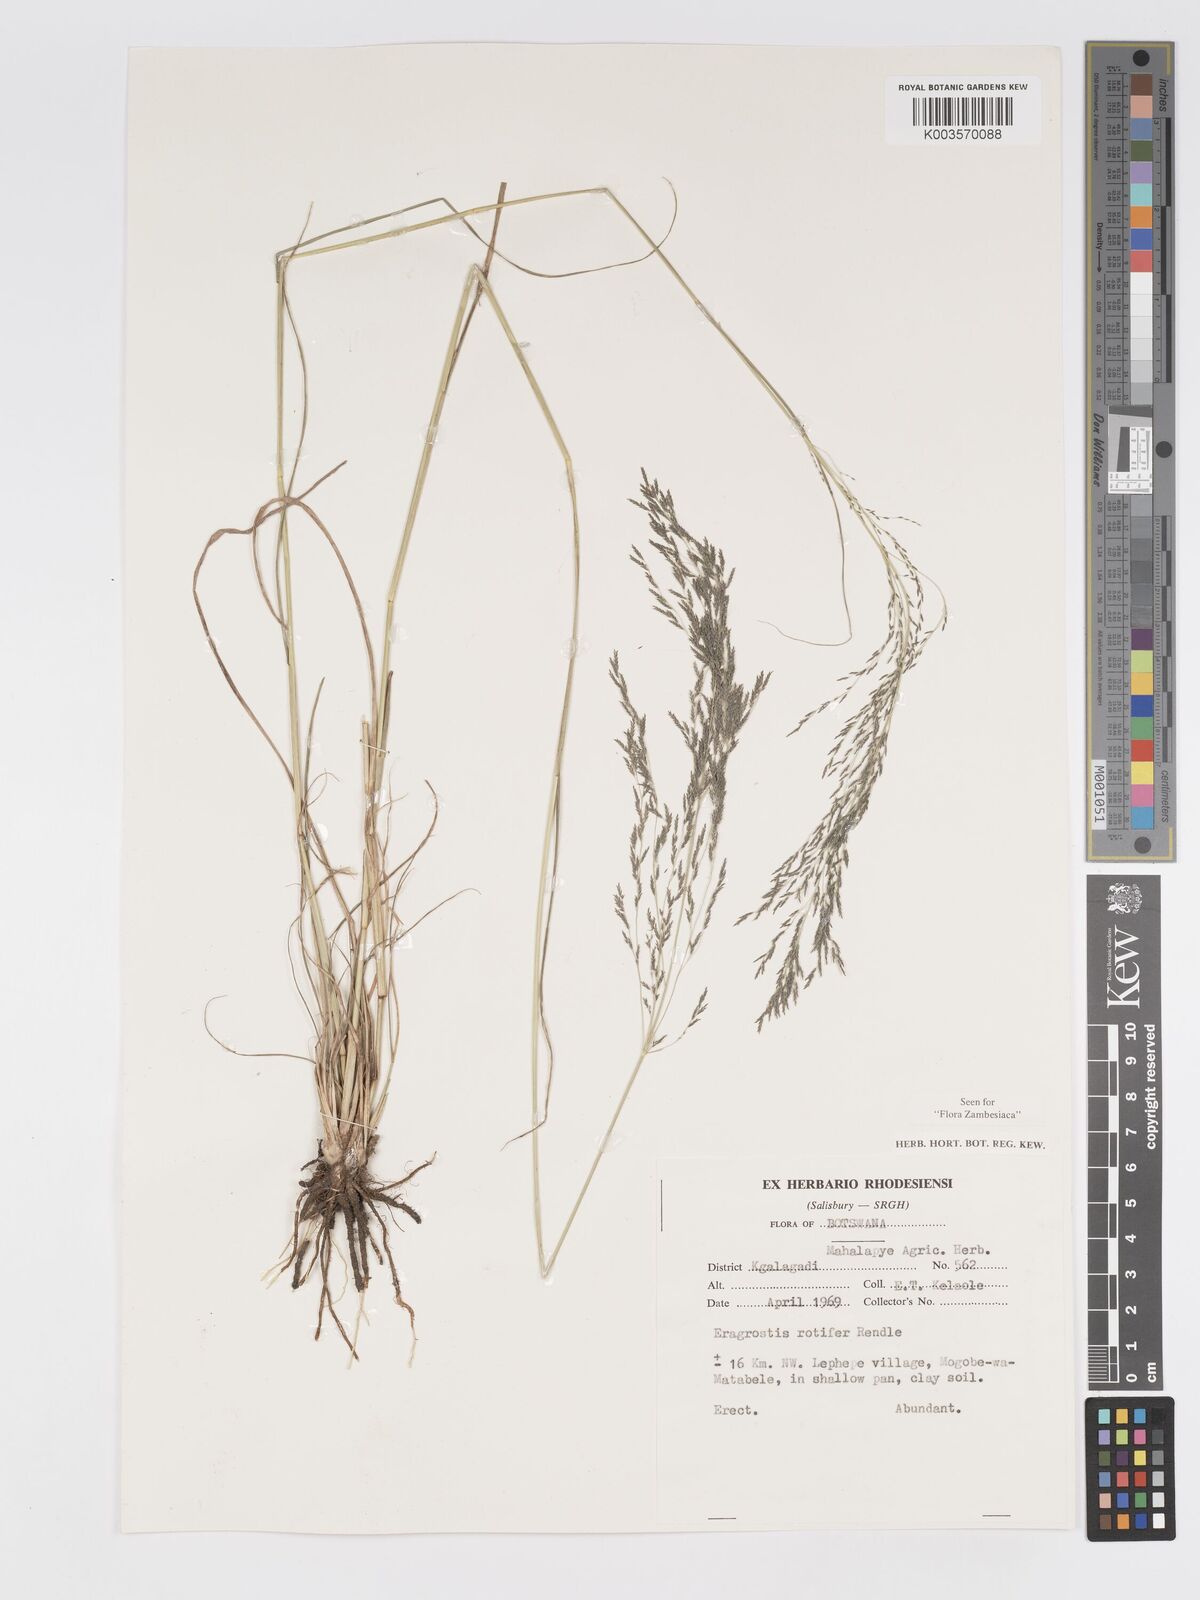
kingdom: Plantae
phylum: Tracheophyta
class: Liliopsida
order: Poales
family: Poaceae
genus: Eragrostis
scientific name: Eragrostis rotifer
